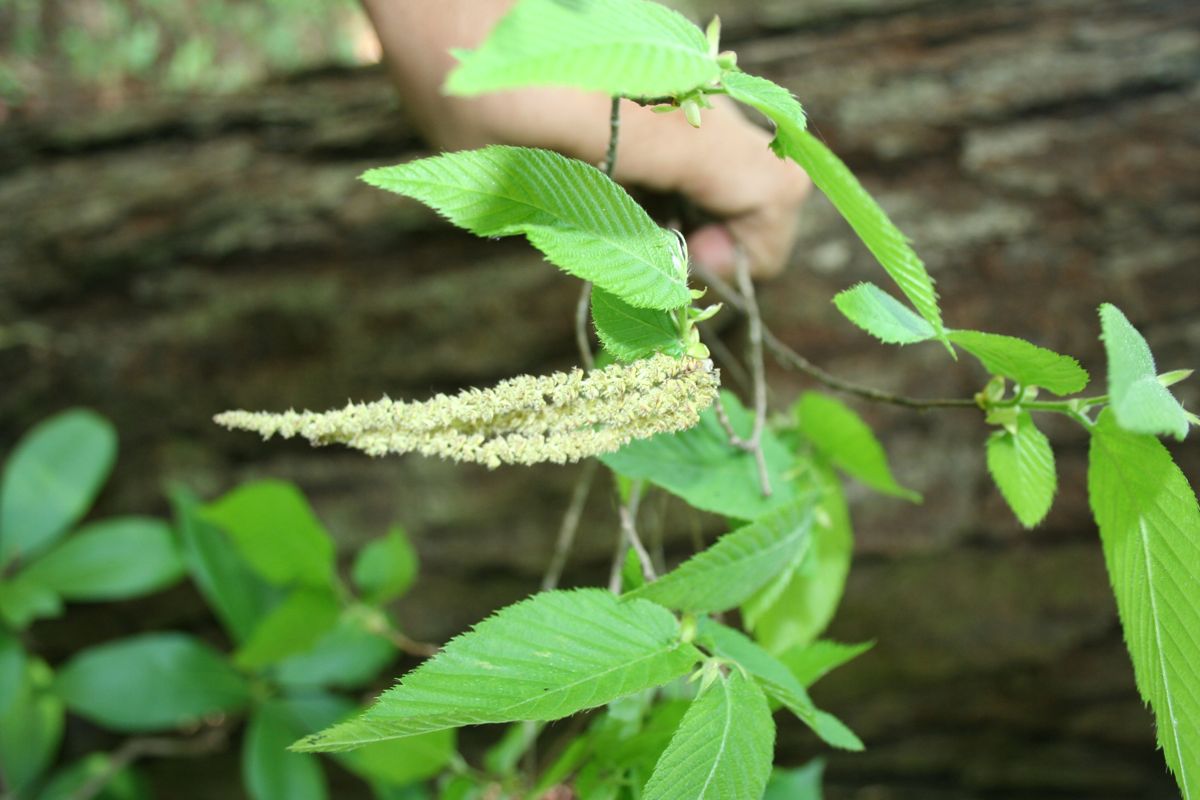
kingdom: Plantae
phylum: Tracheophyta
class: Magnoliopsida
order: Fagales
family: Betulaceae
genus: Carpinus
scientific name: Carpinus tropicalis
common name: Hornbeam
